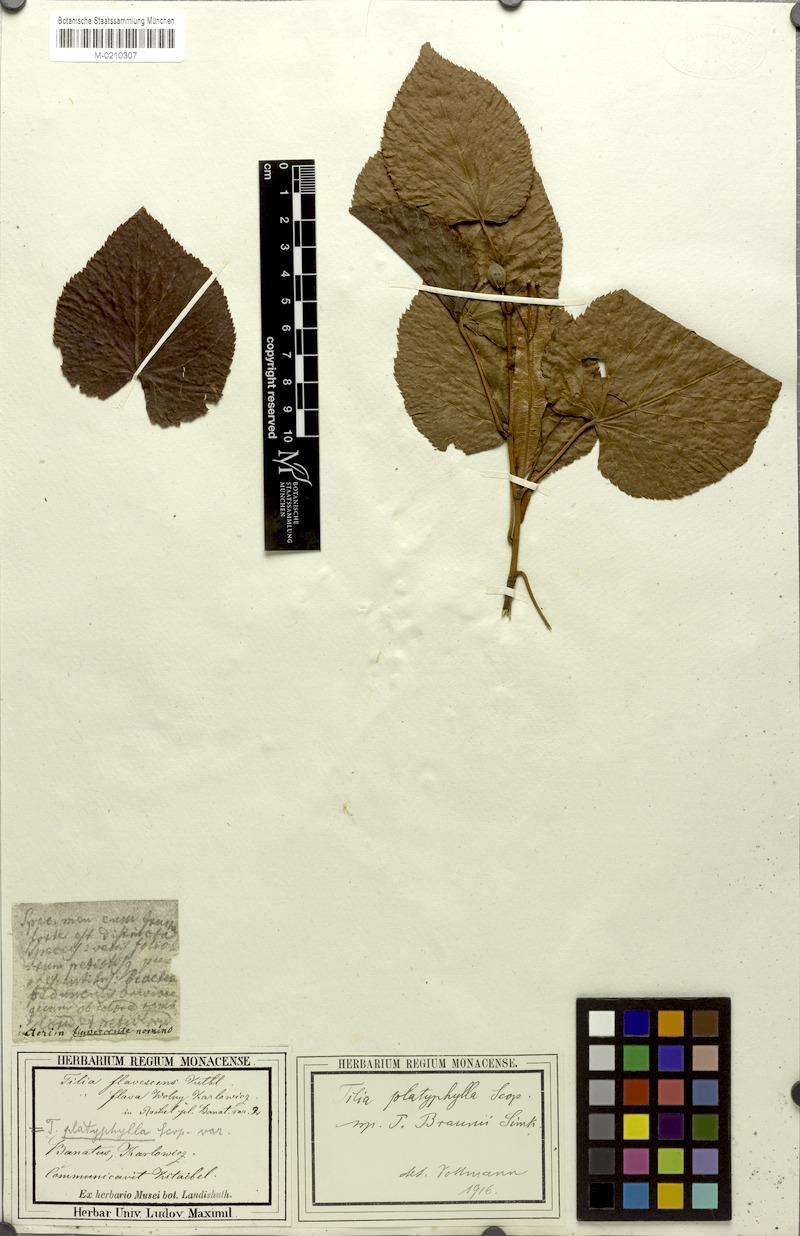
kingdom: Plantae
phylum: Tracheophyta
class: Magnoliopsida
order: Malvales
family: Malvaceae
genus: Tilia
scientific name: Tilia platyphyllos
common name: Large-leaved lime
